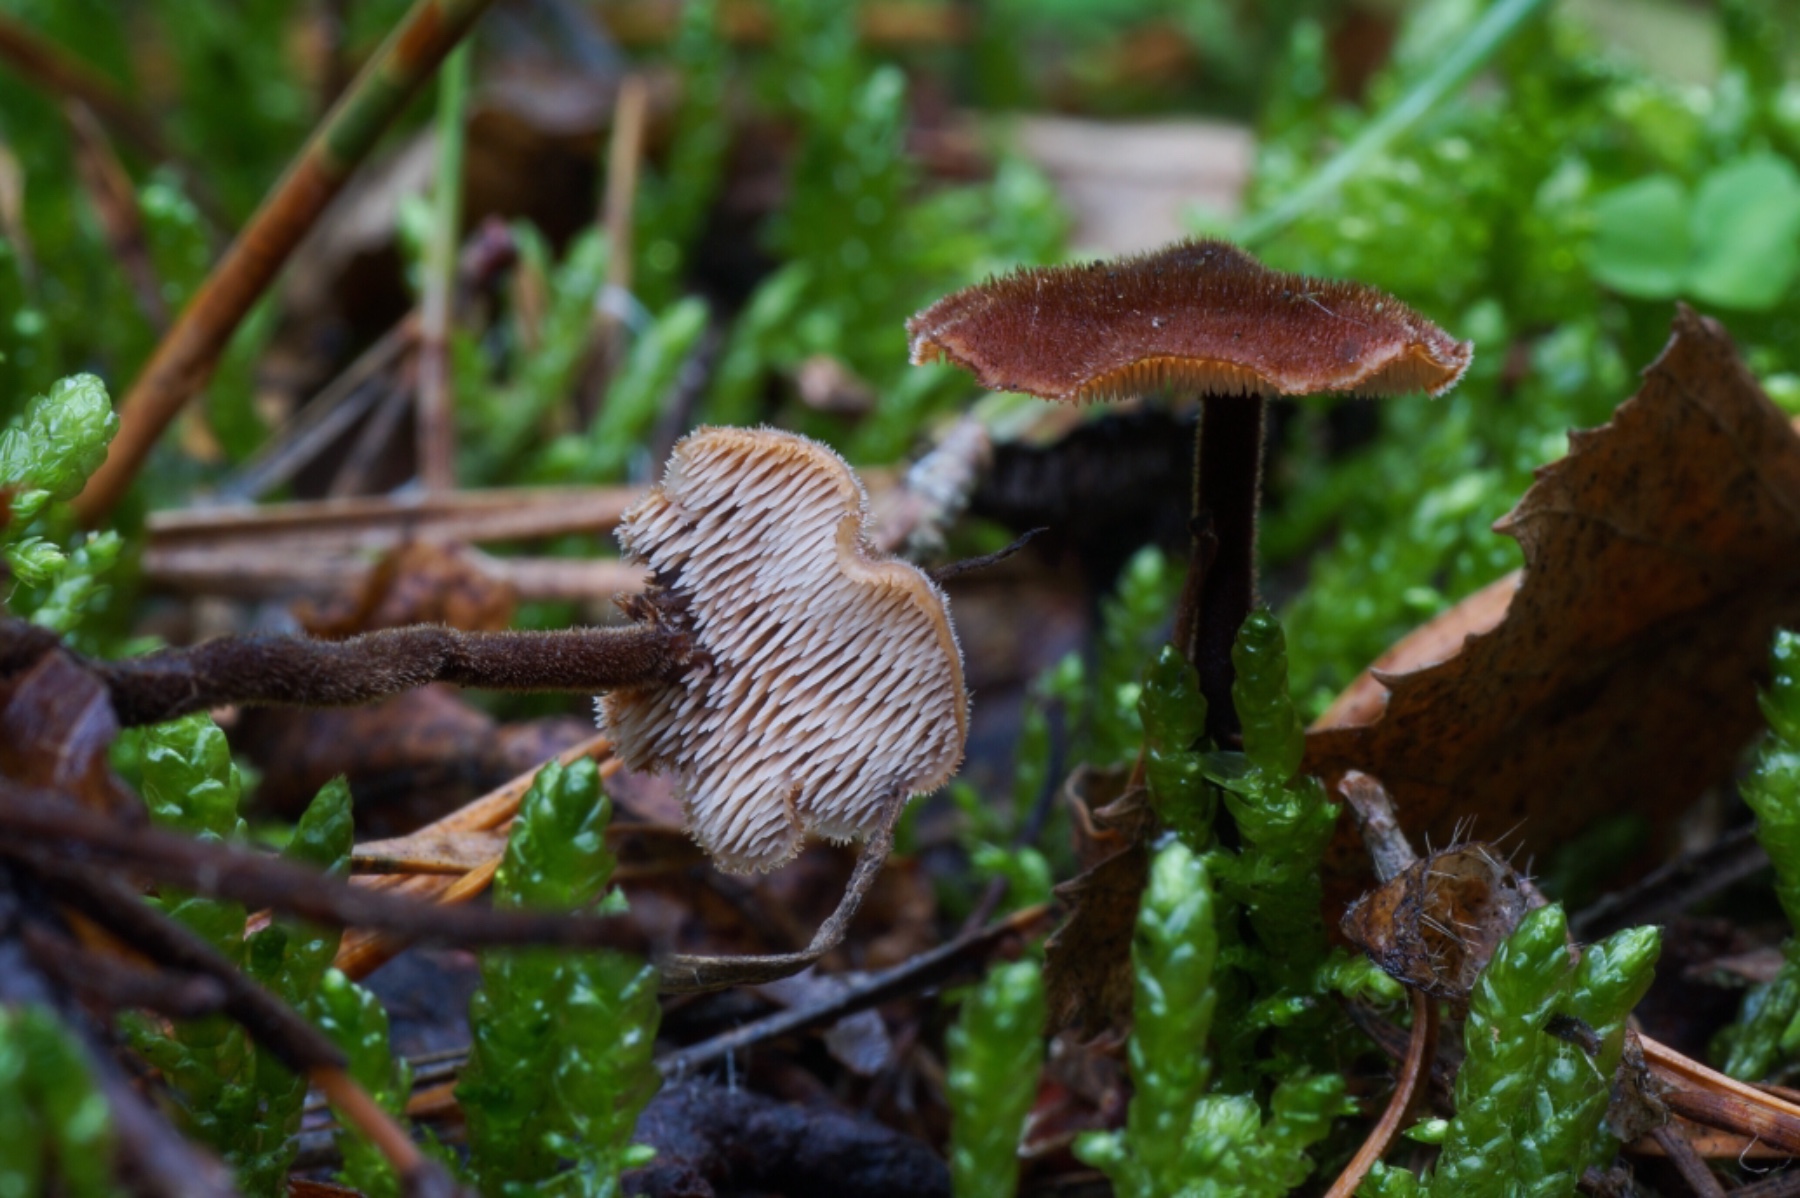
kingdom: Fungi
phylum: Basidiomycota
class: Agaricomycetes
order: Russulales
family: Auriscalpiaceae
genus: Auriscalpium
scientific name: Auriscalpium vulgare
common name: koglepigsvamp
